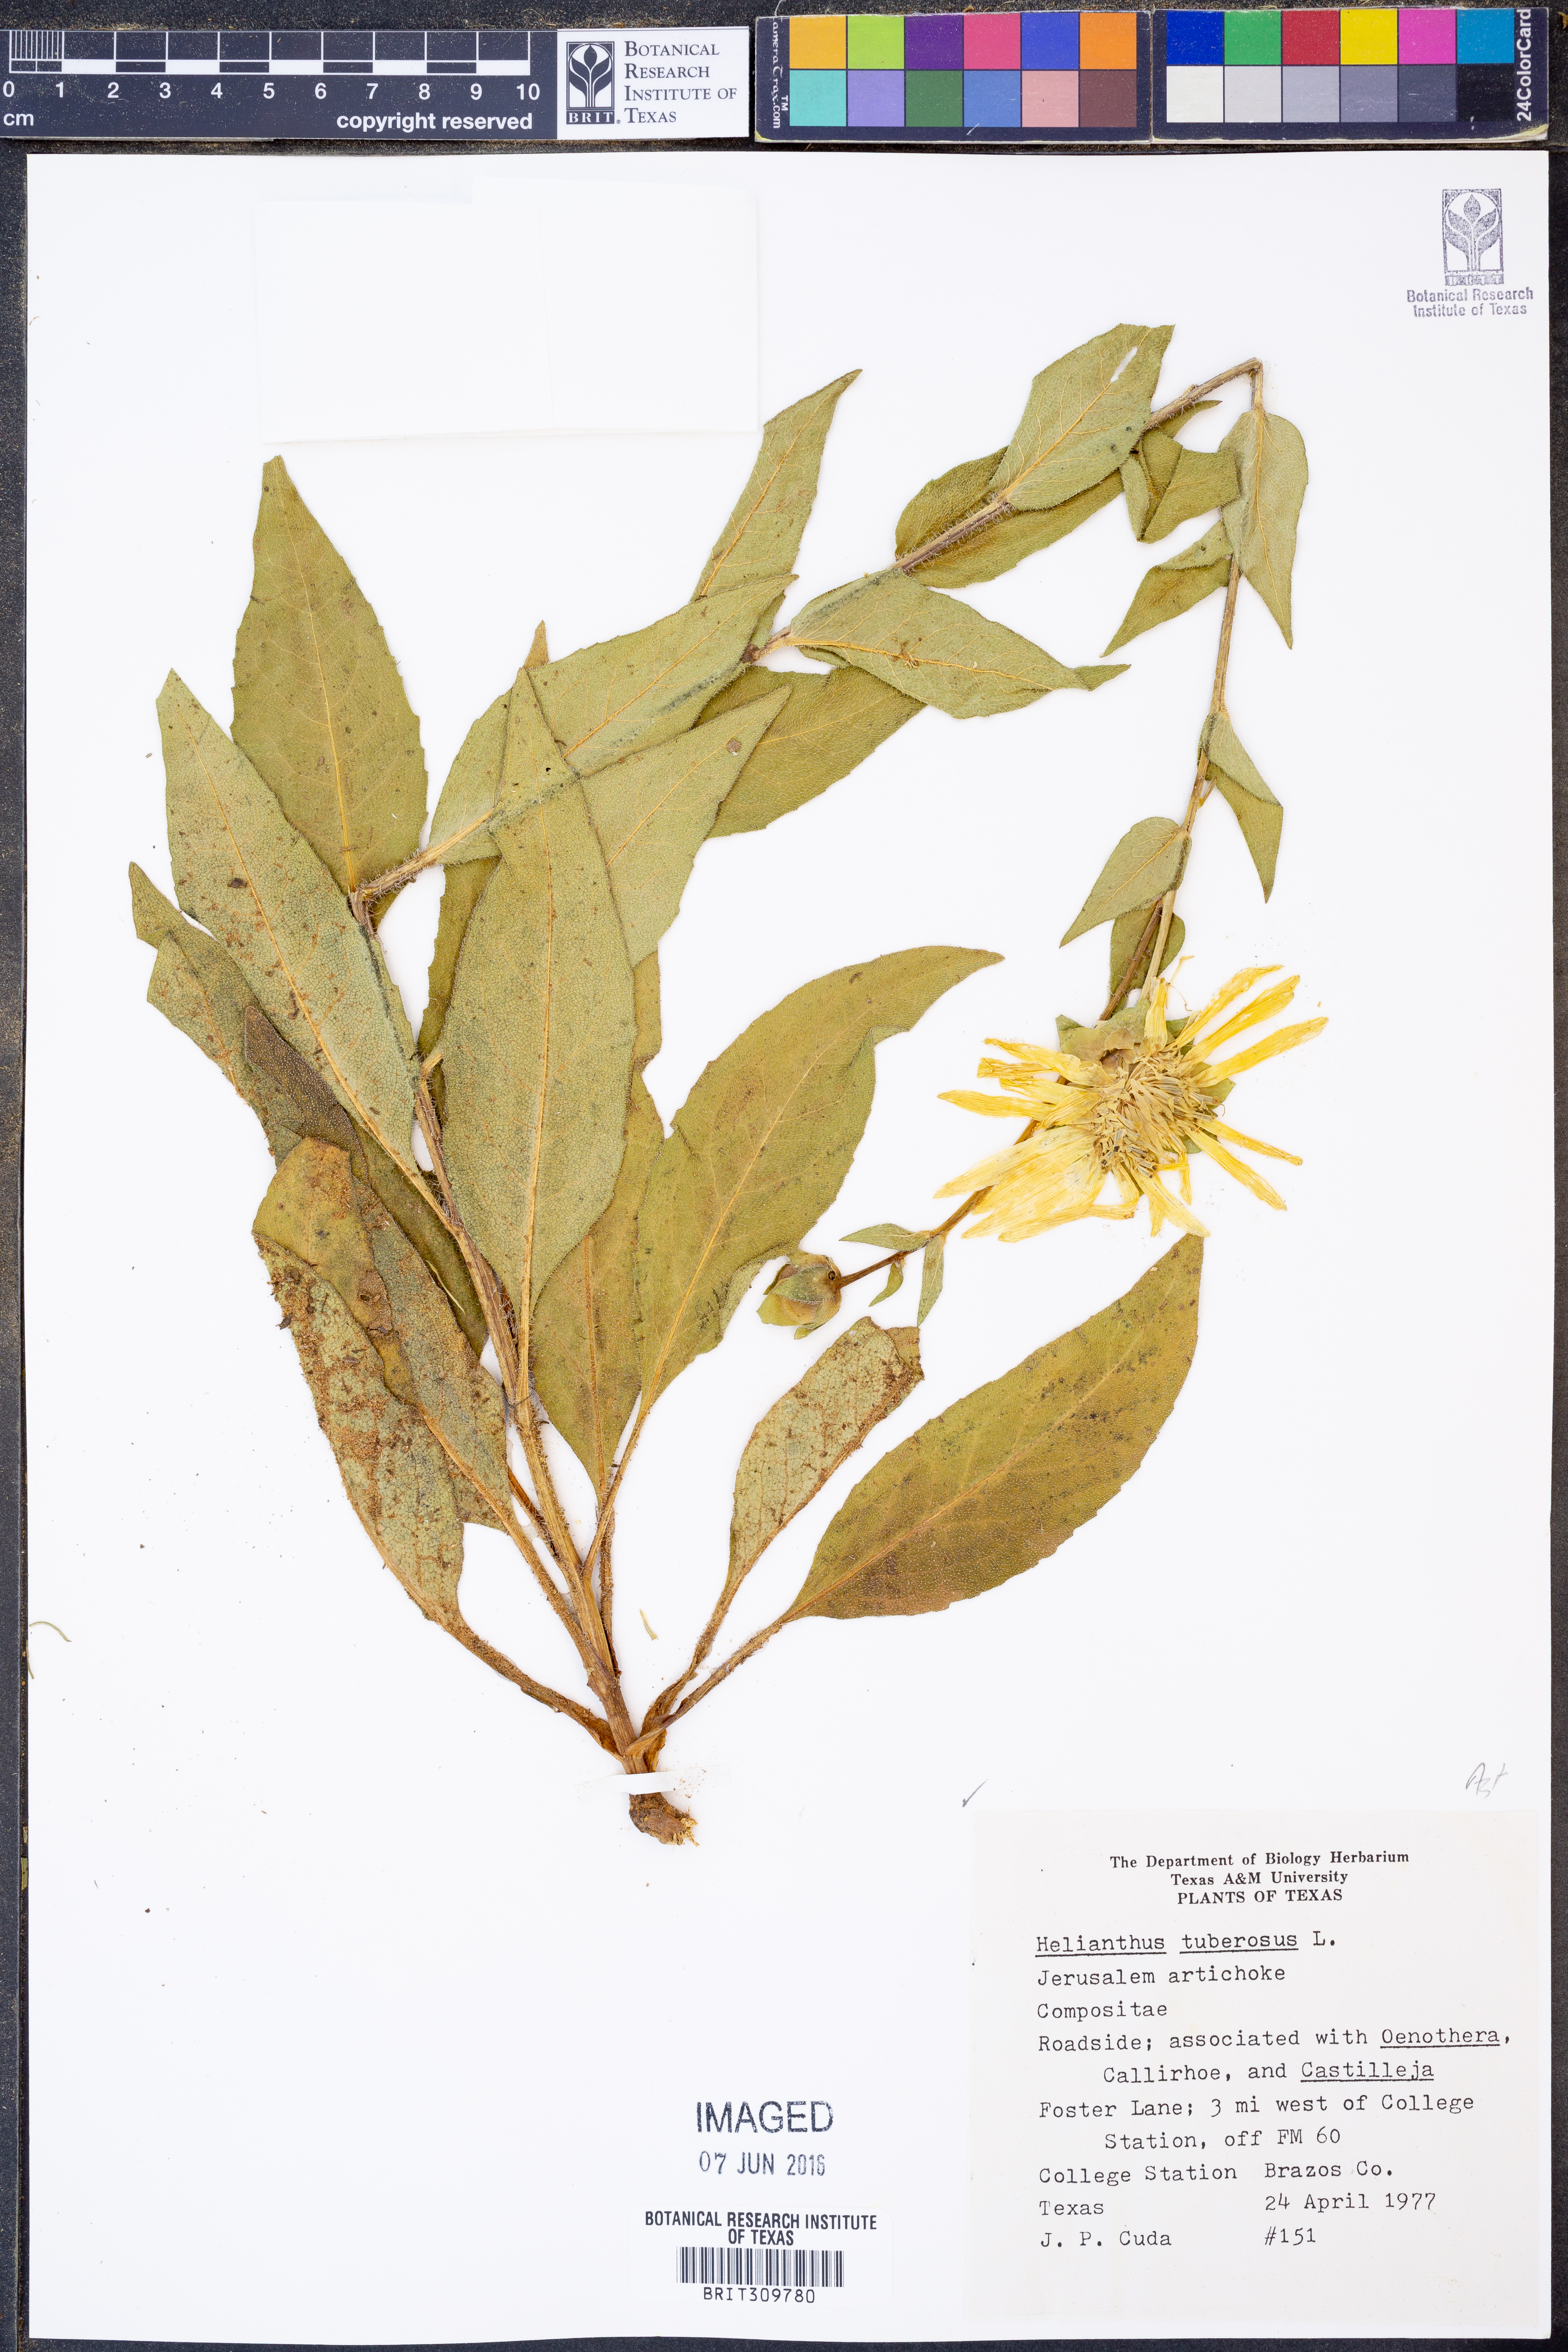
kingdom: Plantae
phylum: Tracheophyta
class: Magnoliopsida
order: Asterales
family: Asteraceae
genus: Helianthus
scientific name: Helianthus tuberosus
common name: Jerusalem artichoke
